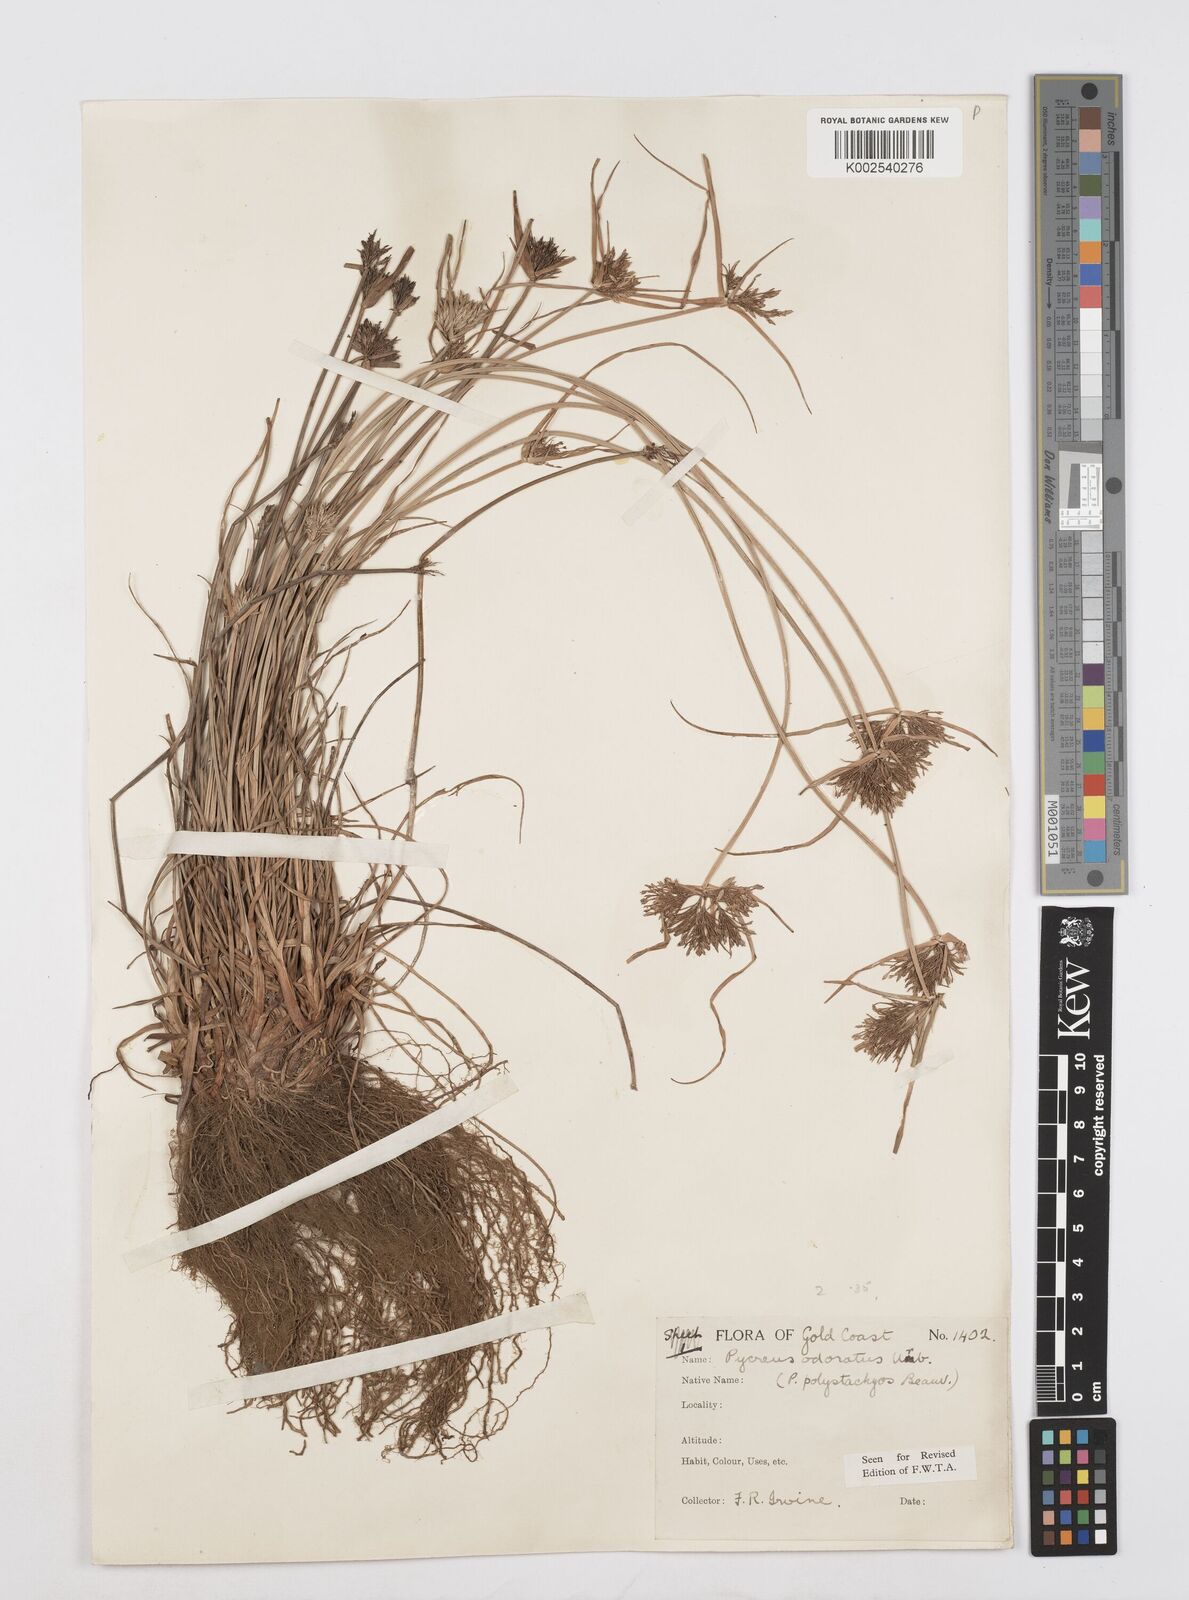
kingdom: Plantae
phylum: Tracheophyta
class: Liliopsida
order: Poales
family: Cyperaceae
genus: Cyperus
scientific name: Cyperus polystachyos
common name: Bunchy flat sedge
